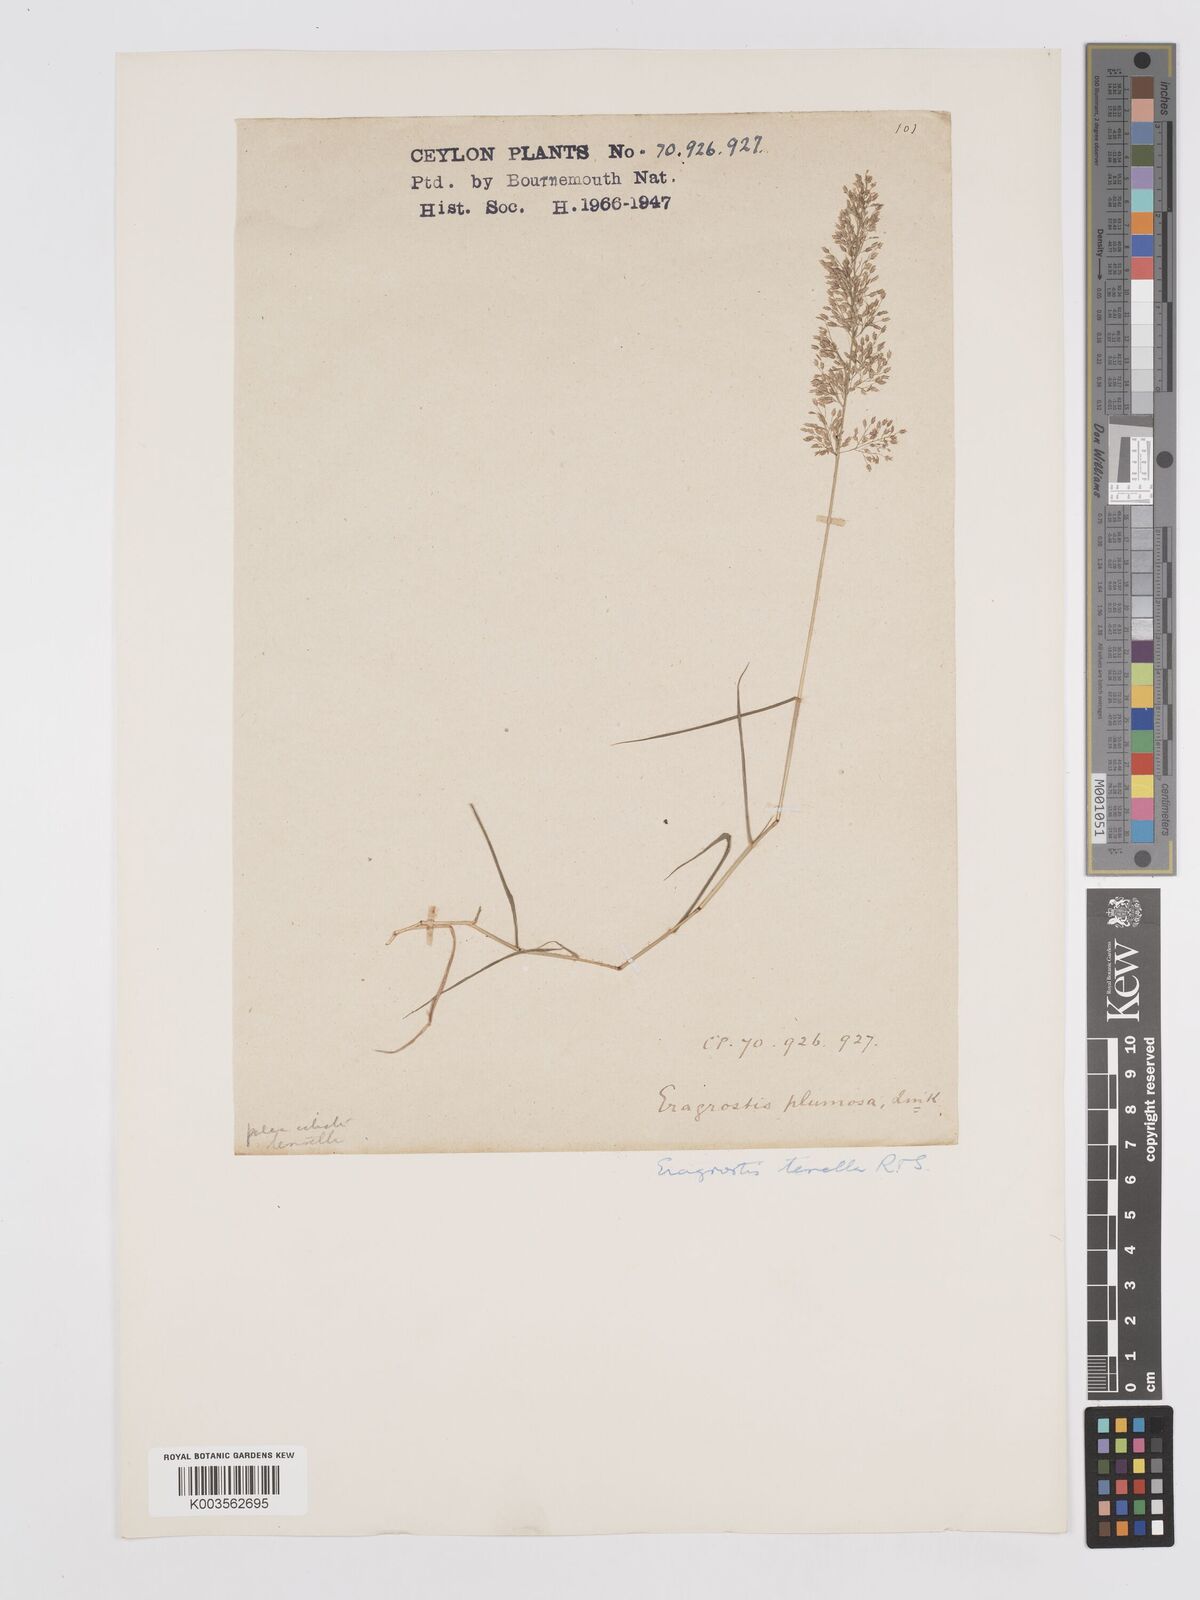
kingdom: Plantae
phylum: Tracheophyta
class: Liliopsida
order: Poales
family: Poaceae
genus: Eragrostis
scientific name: Eragrostis tenella
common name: Japanese lovegrass
